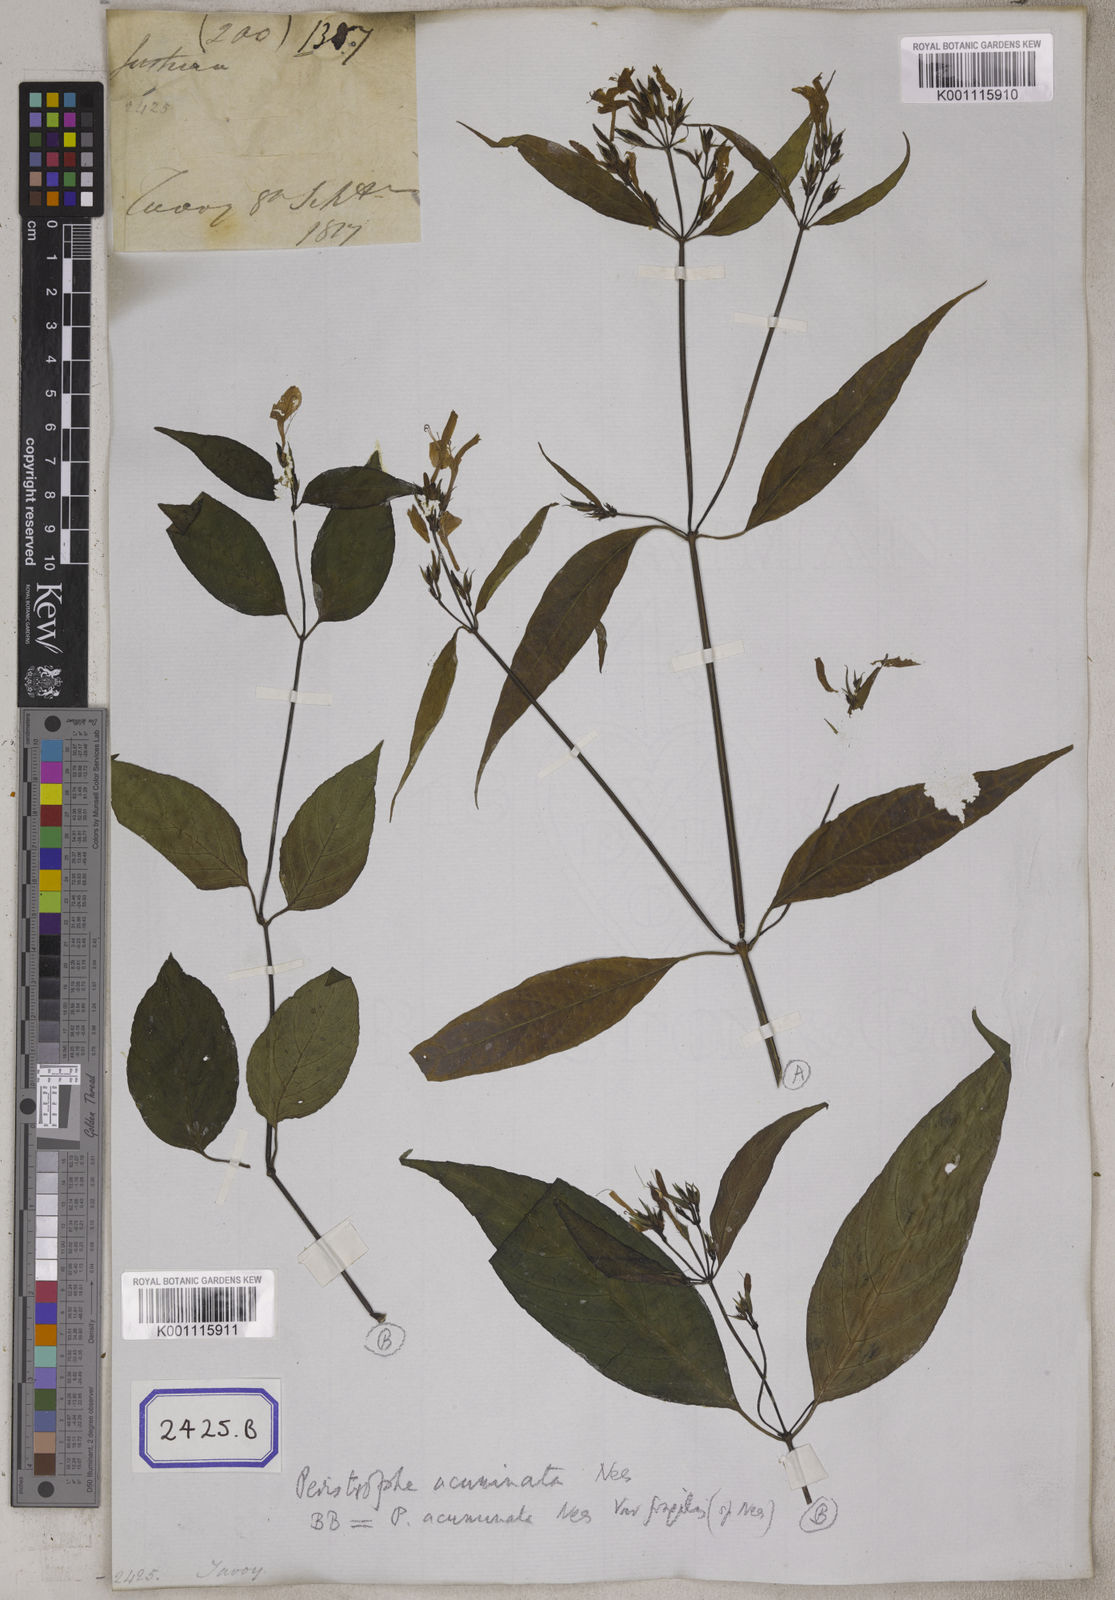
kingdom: Plantae
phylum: Tracheophyta
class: Magnoliopsida
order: Lamiales
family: Acanthaceae
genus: Dicliptera
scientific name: Dicliptera sebastinei
